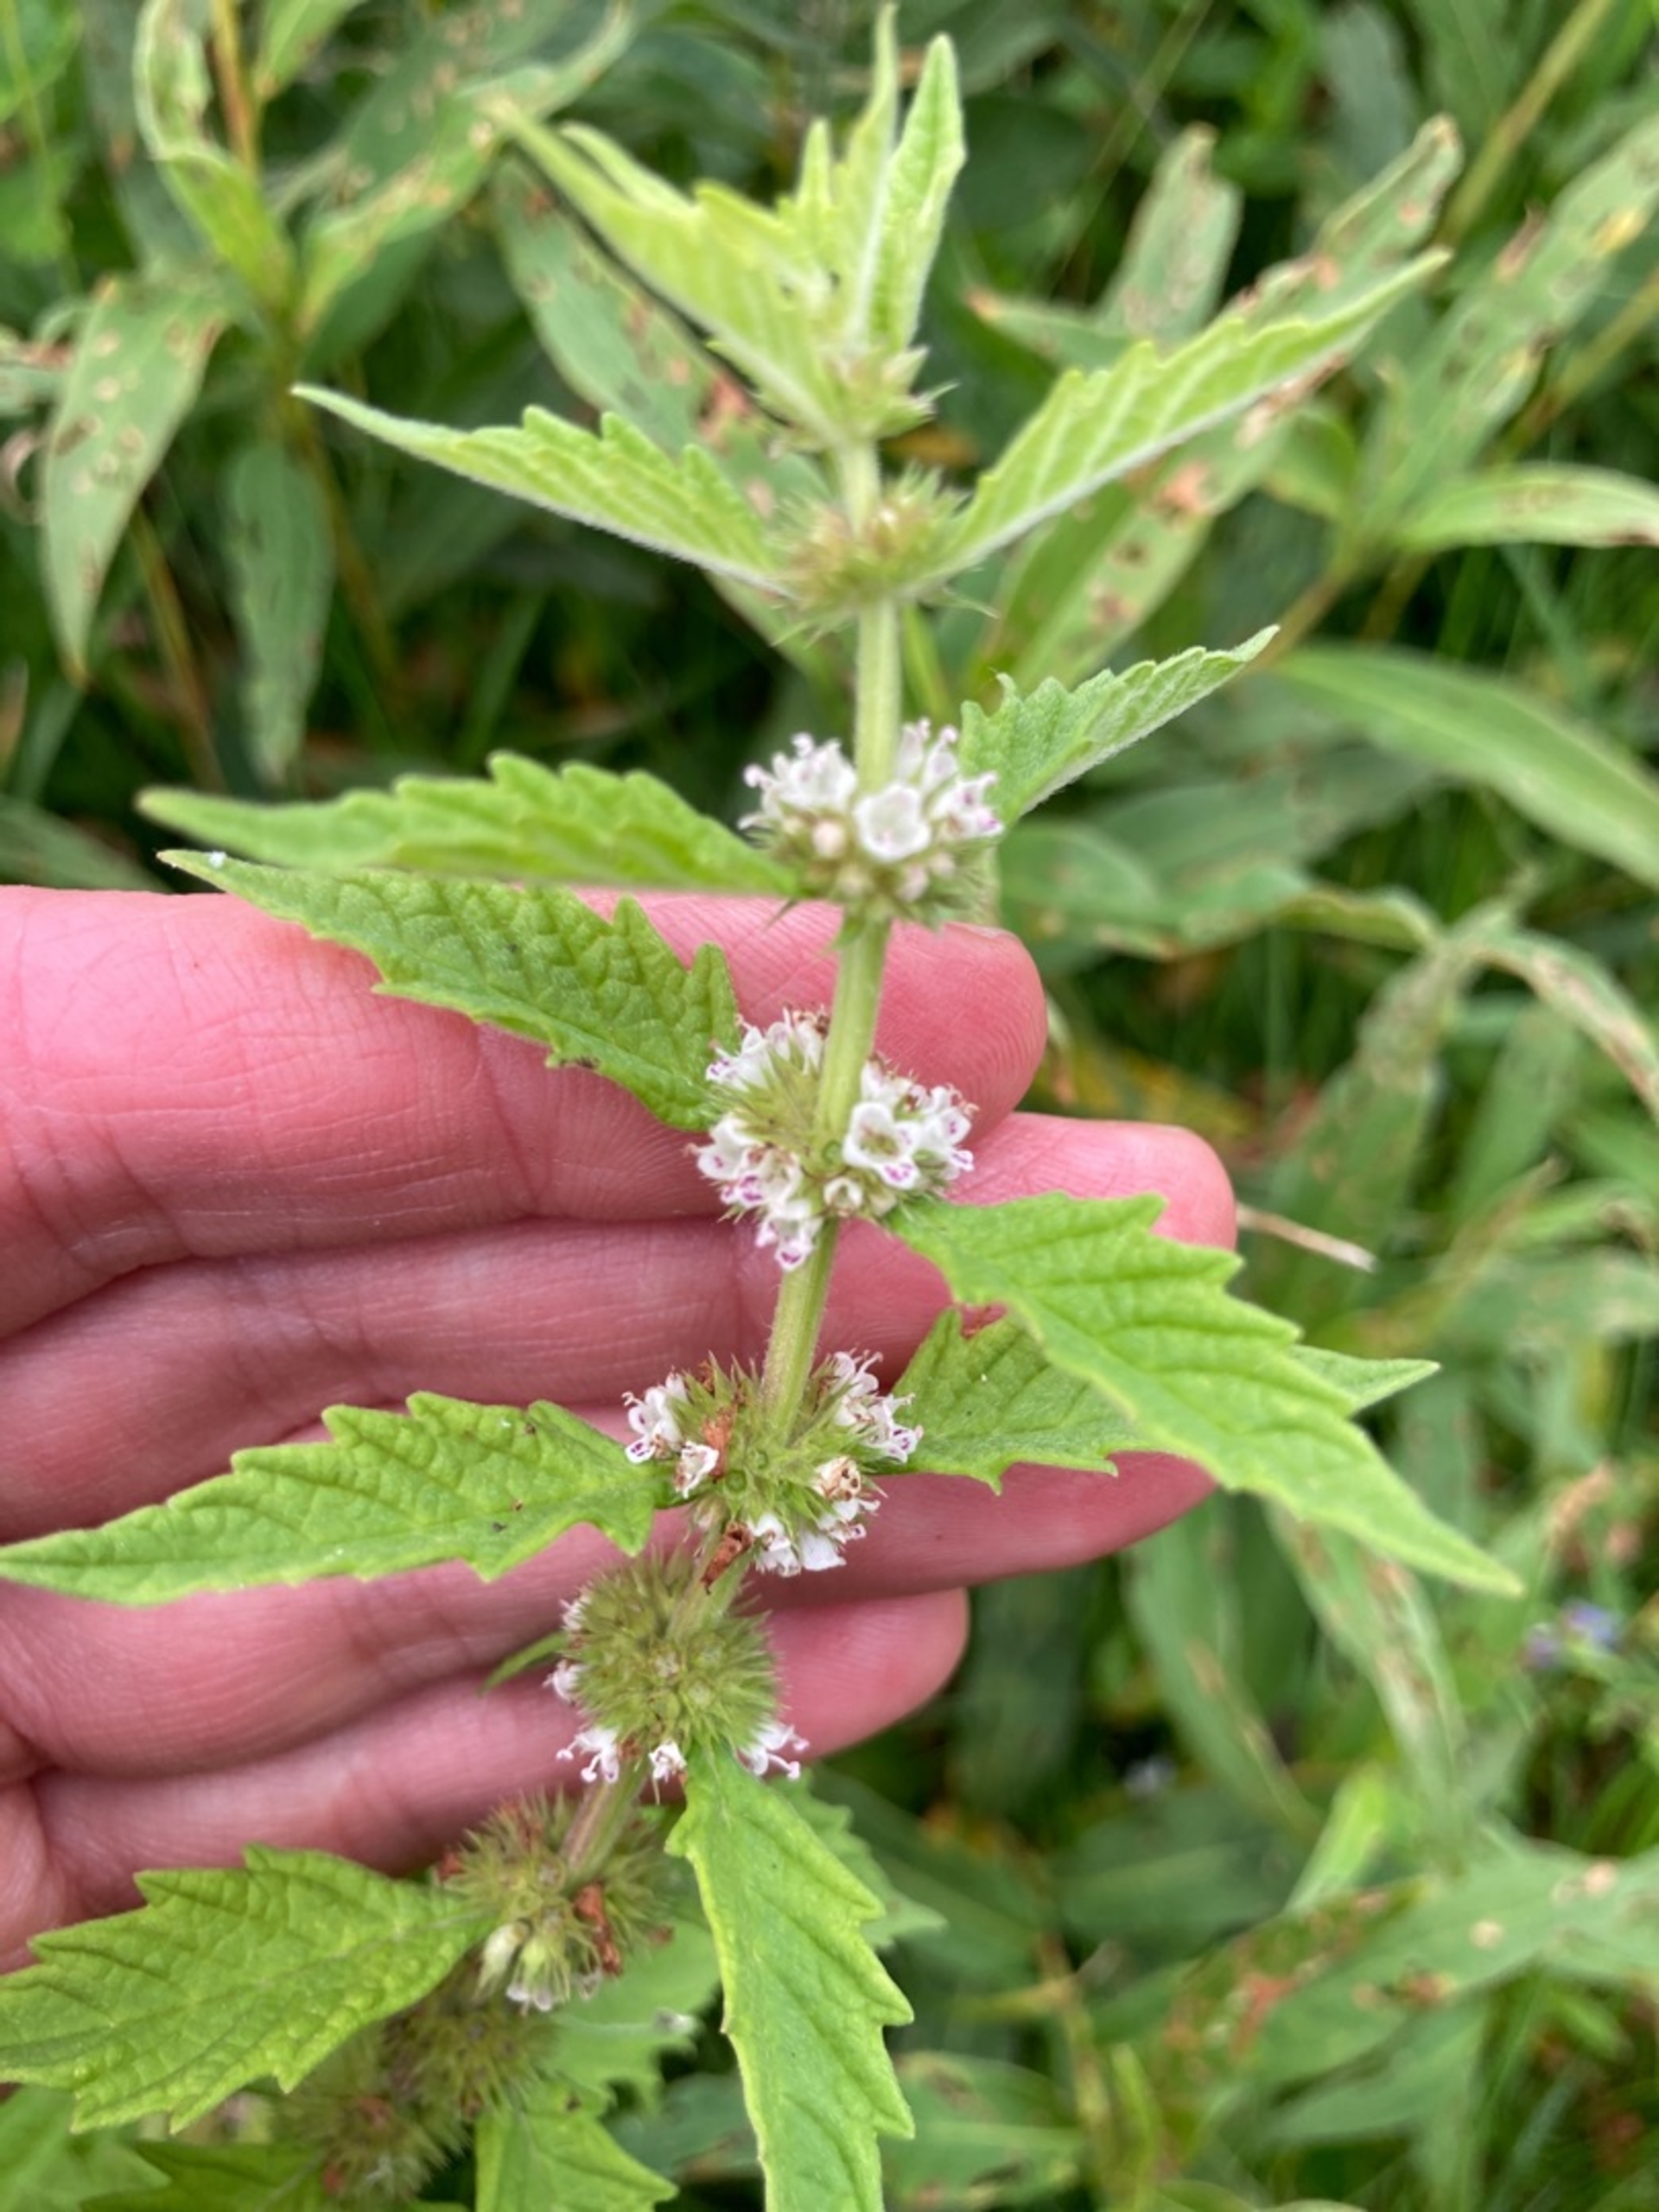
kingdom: Plantae
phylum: Tracheophyta
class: Magnoliopsida
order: Lamiales
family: Lamiaceae
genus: Lycopus
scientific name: Lycopus europaeus
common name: Sværtevæld
